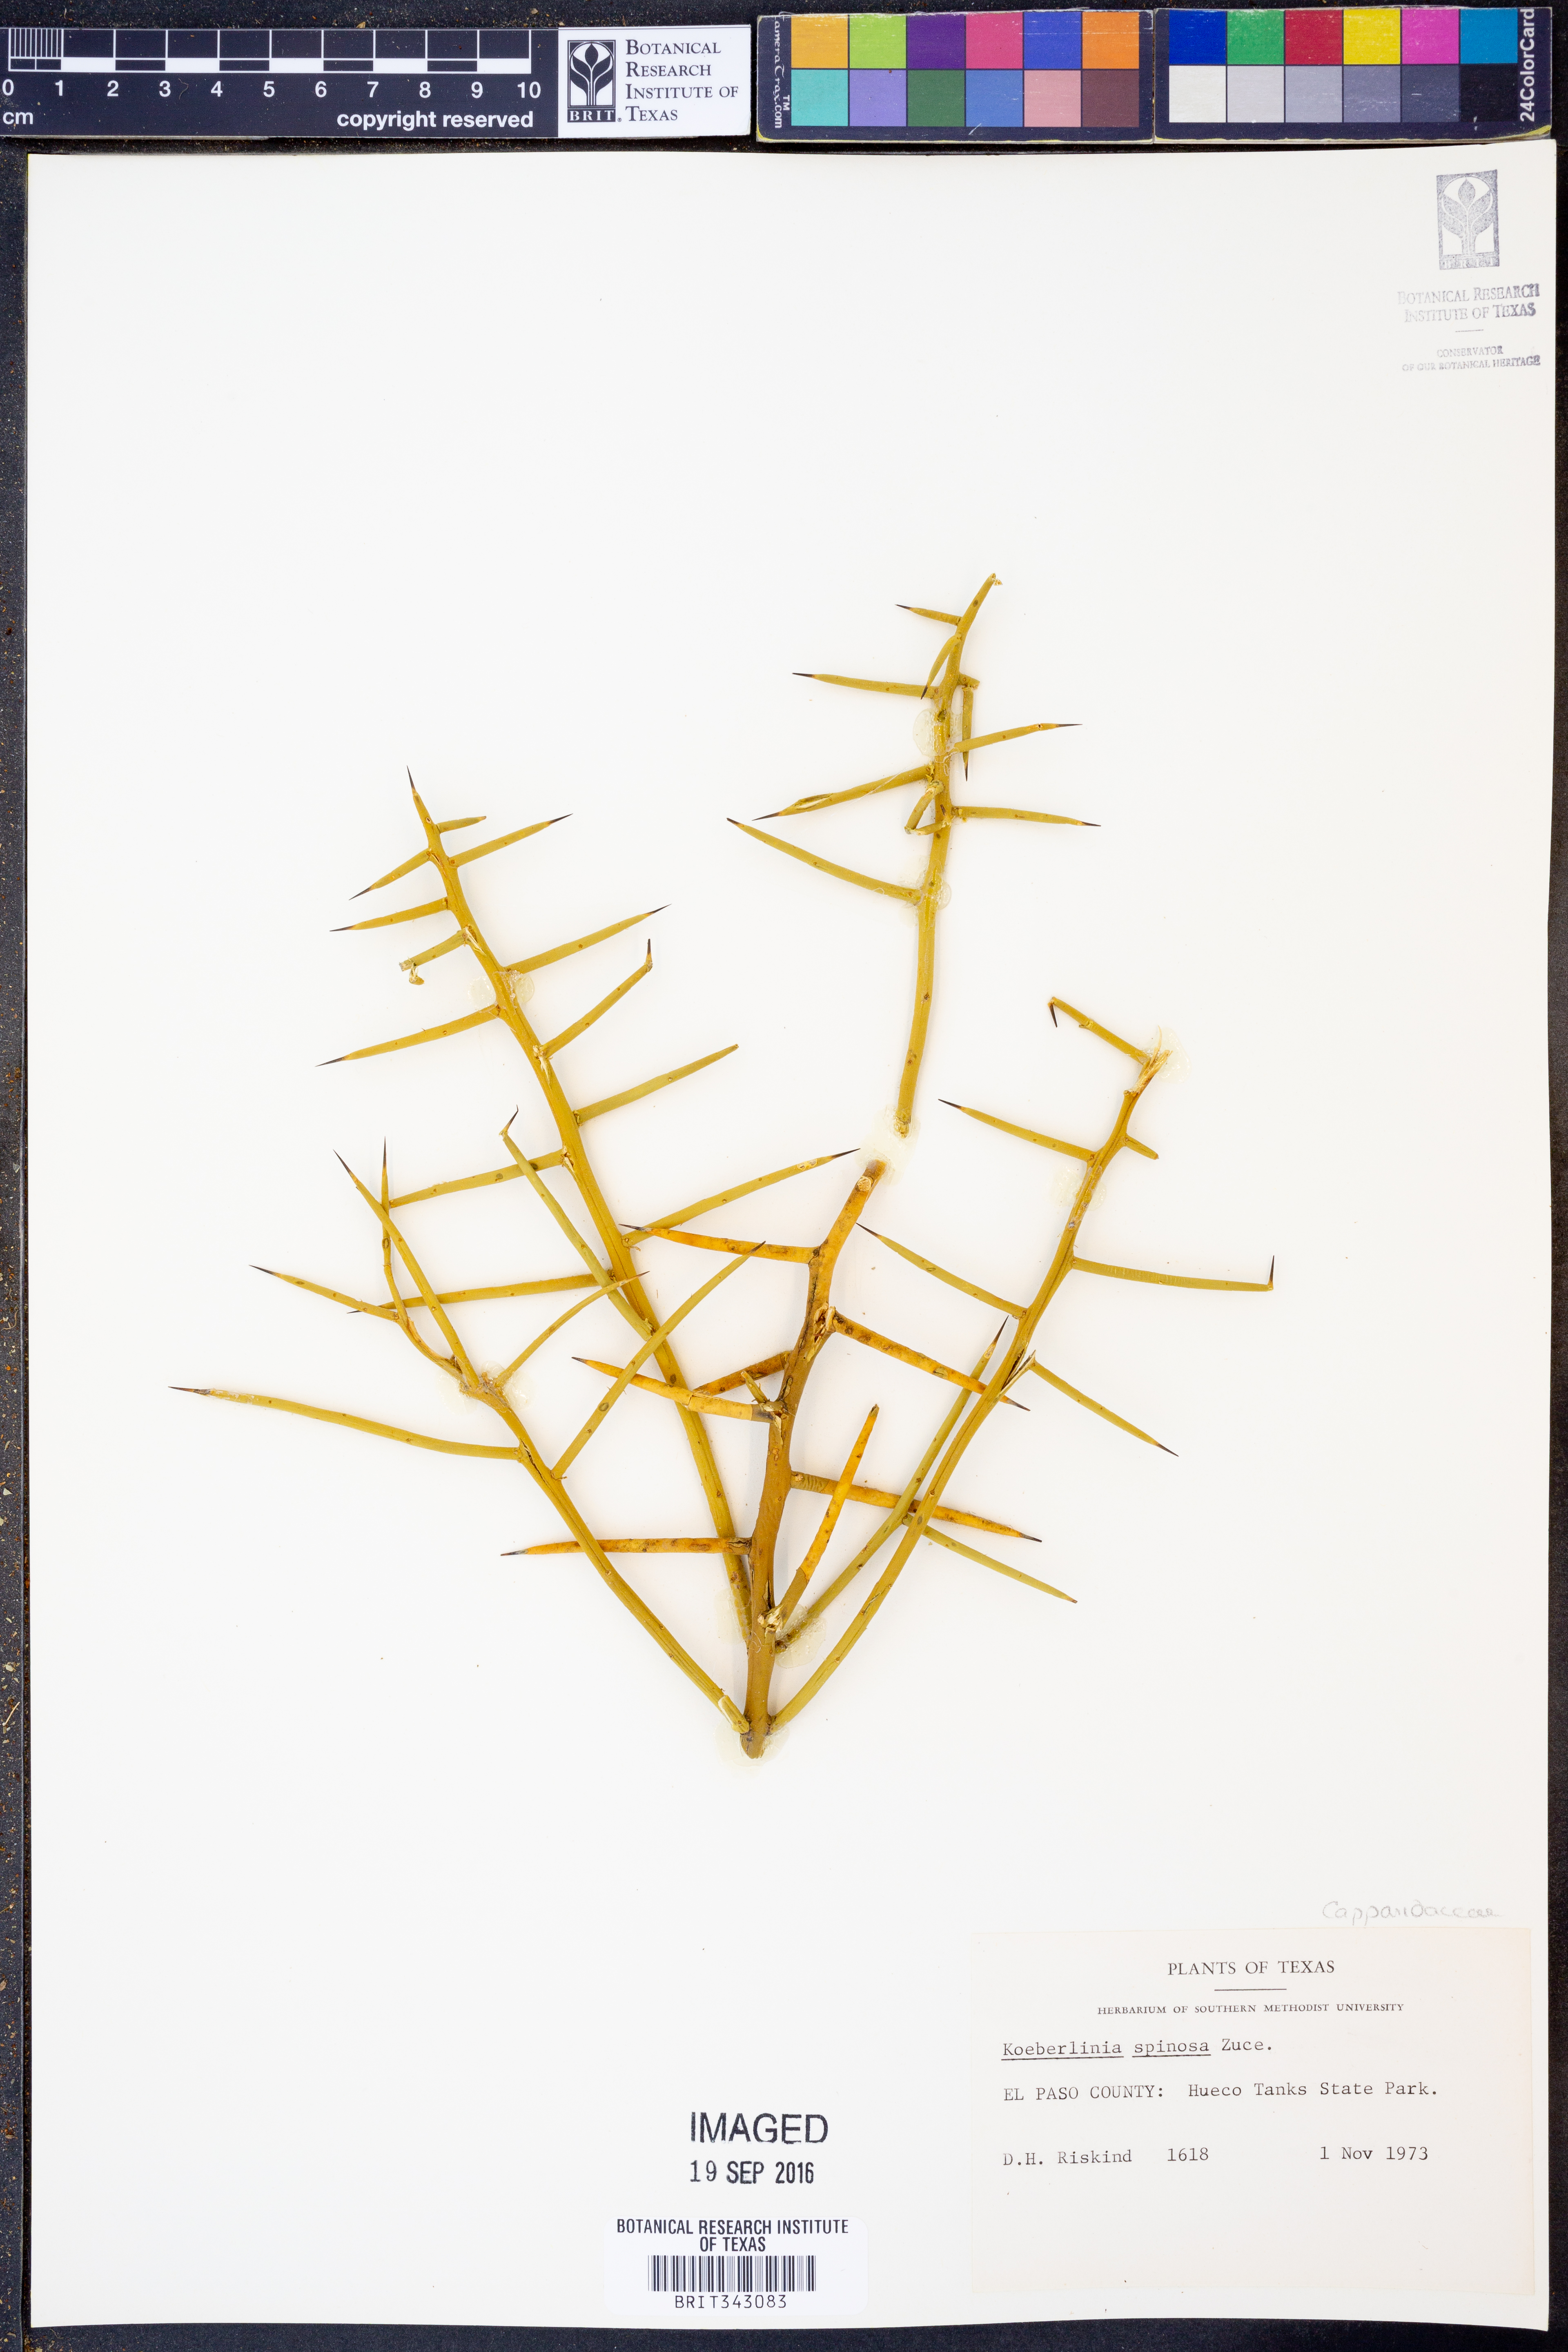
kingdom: Plantae
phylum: Tracheophyta
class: Magnoliopsida
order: Brassicales
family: Koeberliniaceae
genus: Koeberlinia
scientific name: Koeberlinia spinosa
